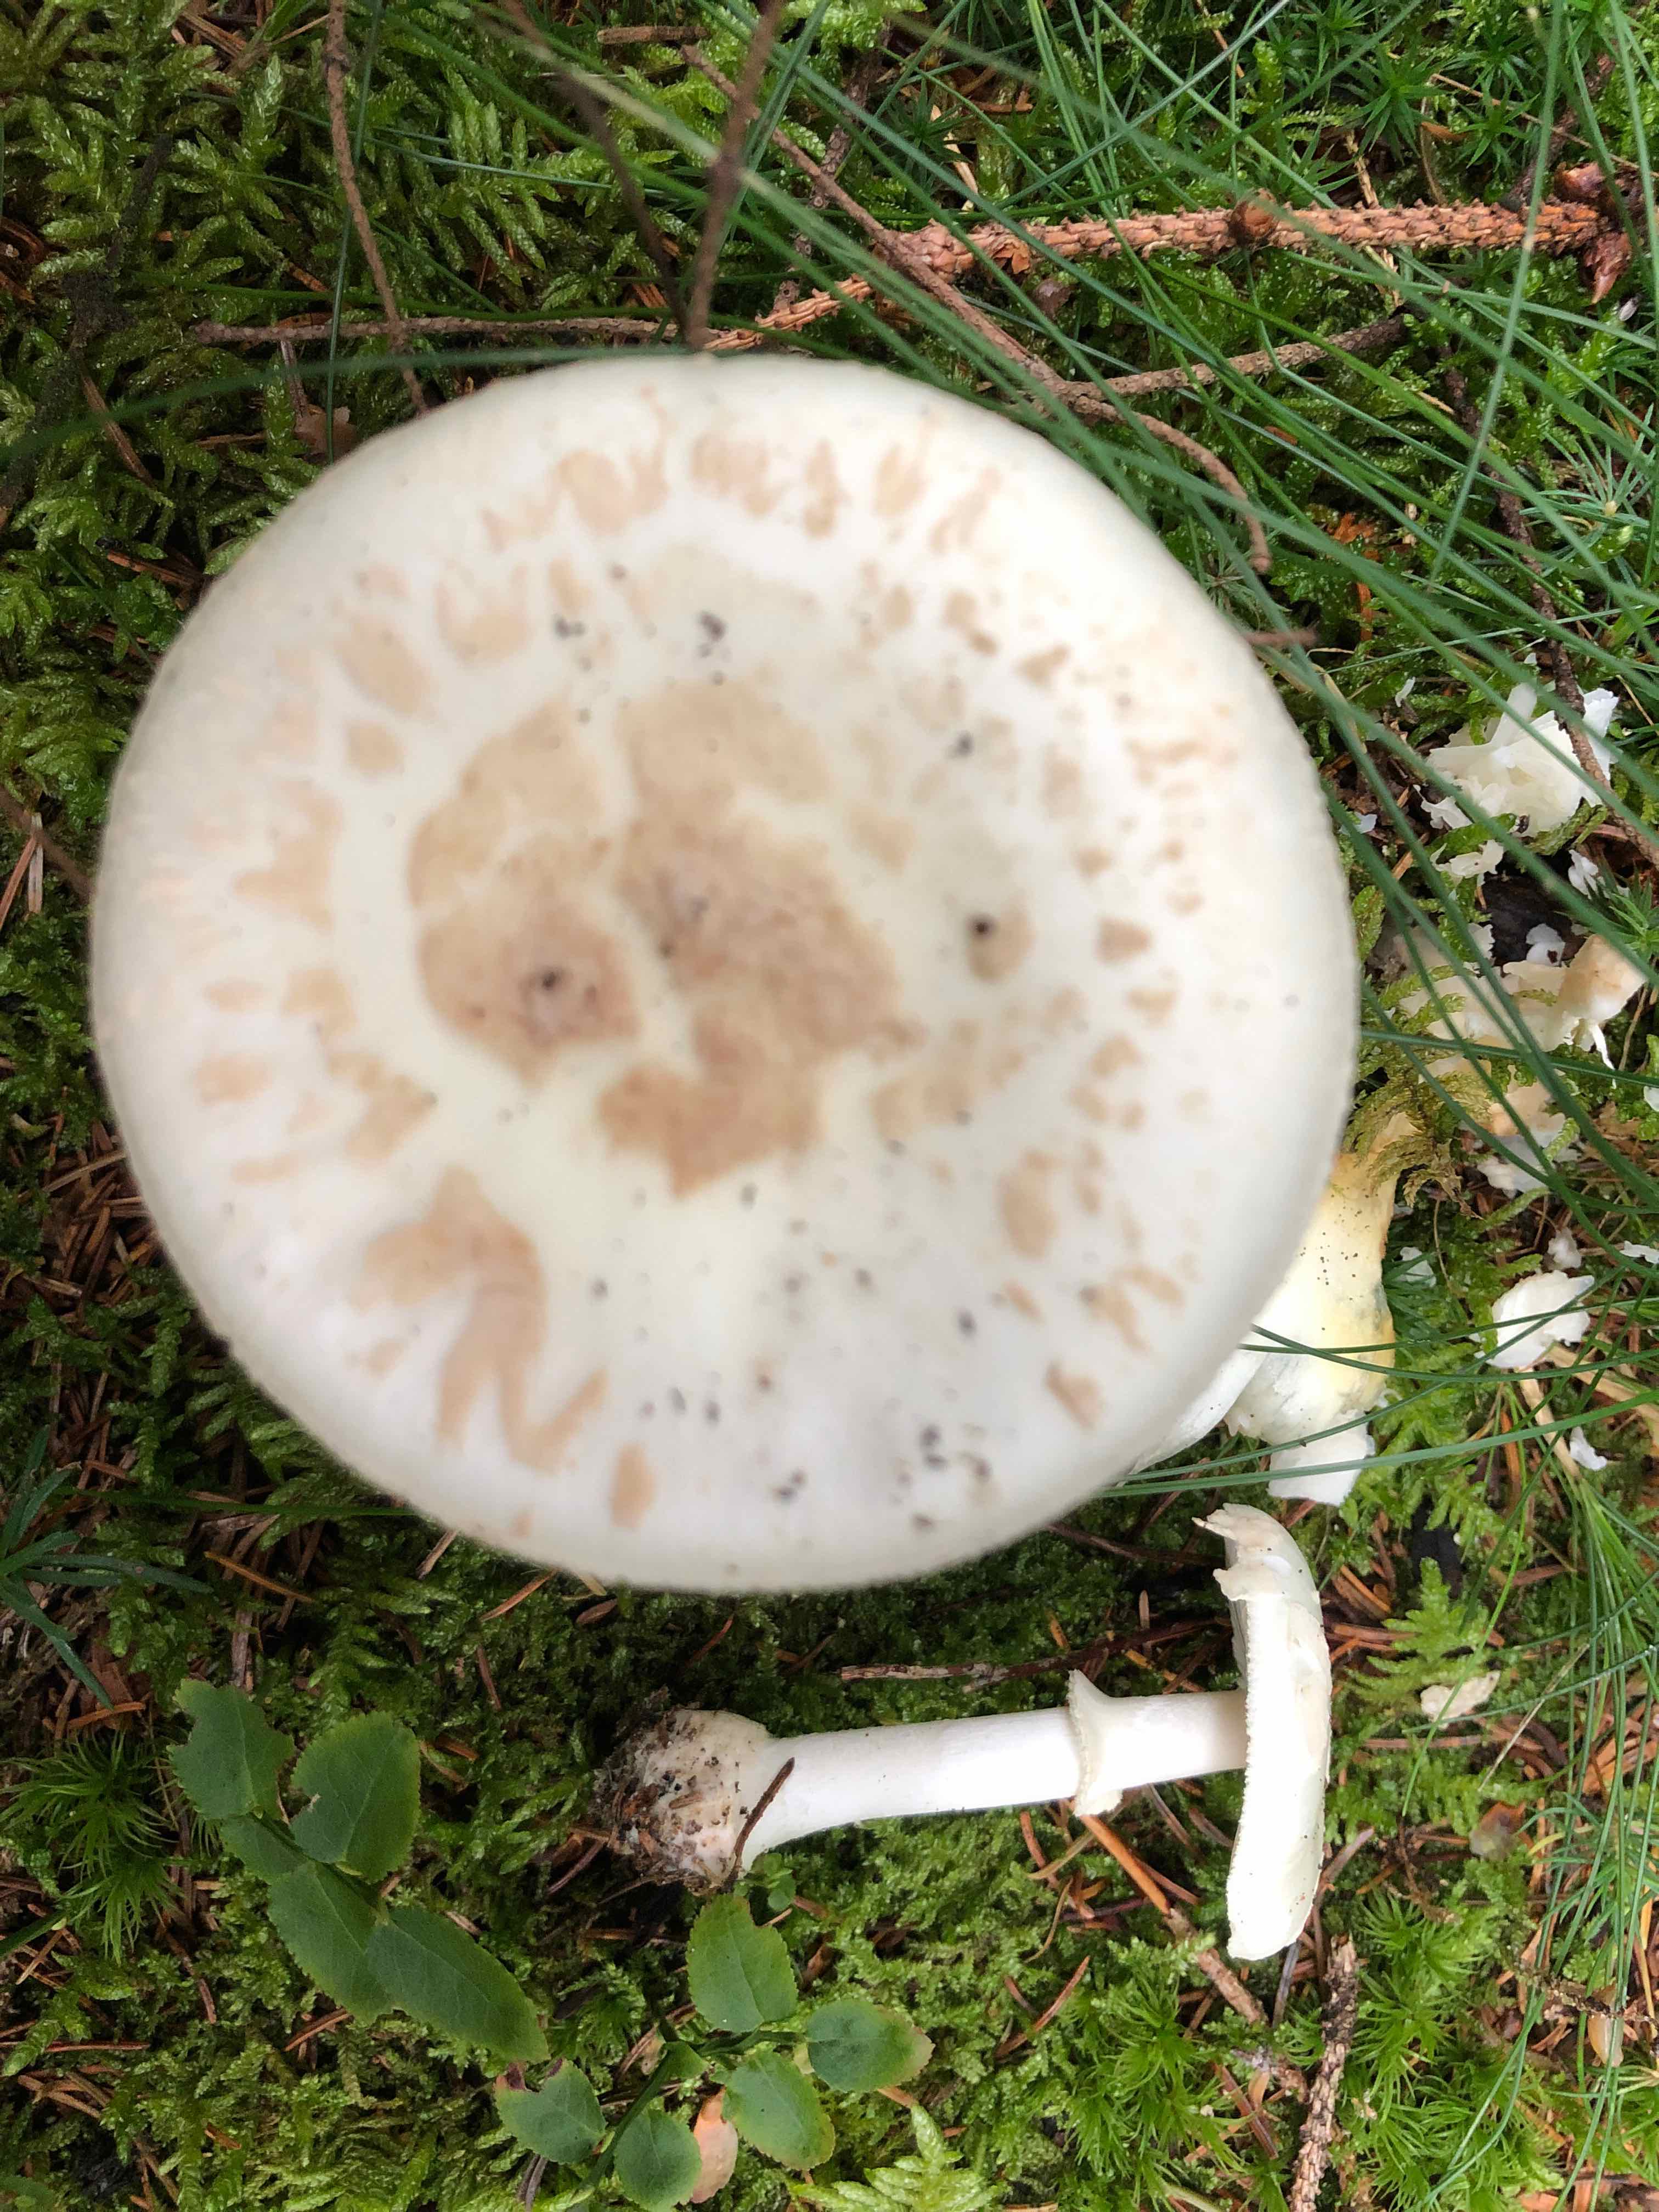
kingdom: Fungi
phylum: Basidiomycota
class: Agaricomycetes
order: Agaricales
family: Amanitaceae
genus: Amanita
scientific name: Amanita citrina
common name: False death-cap
